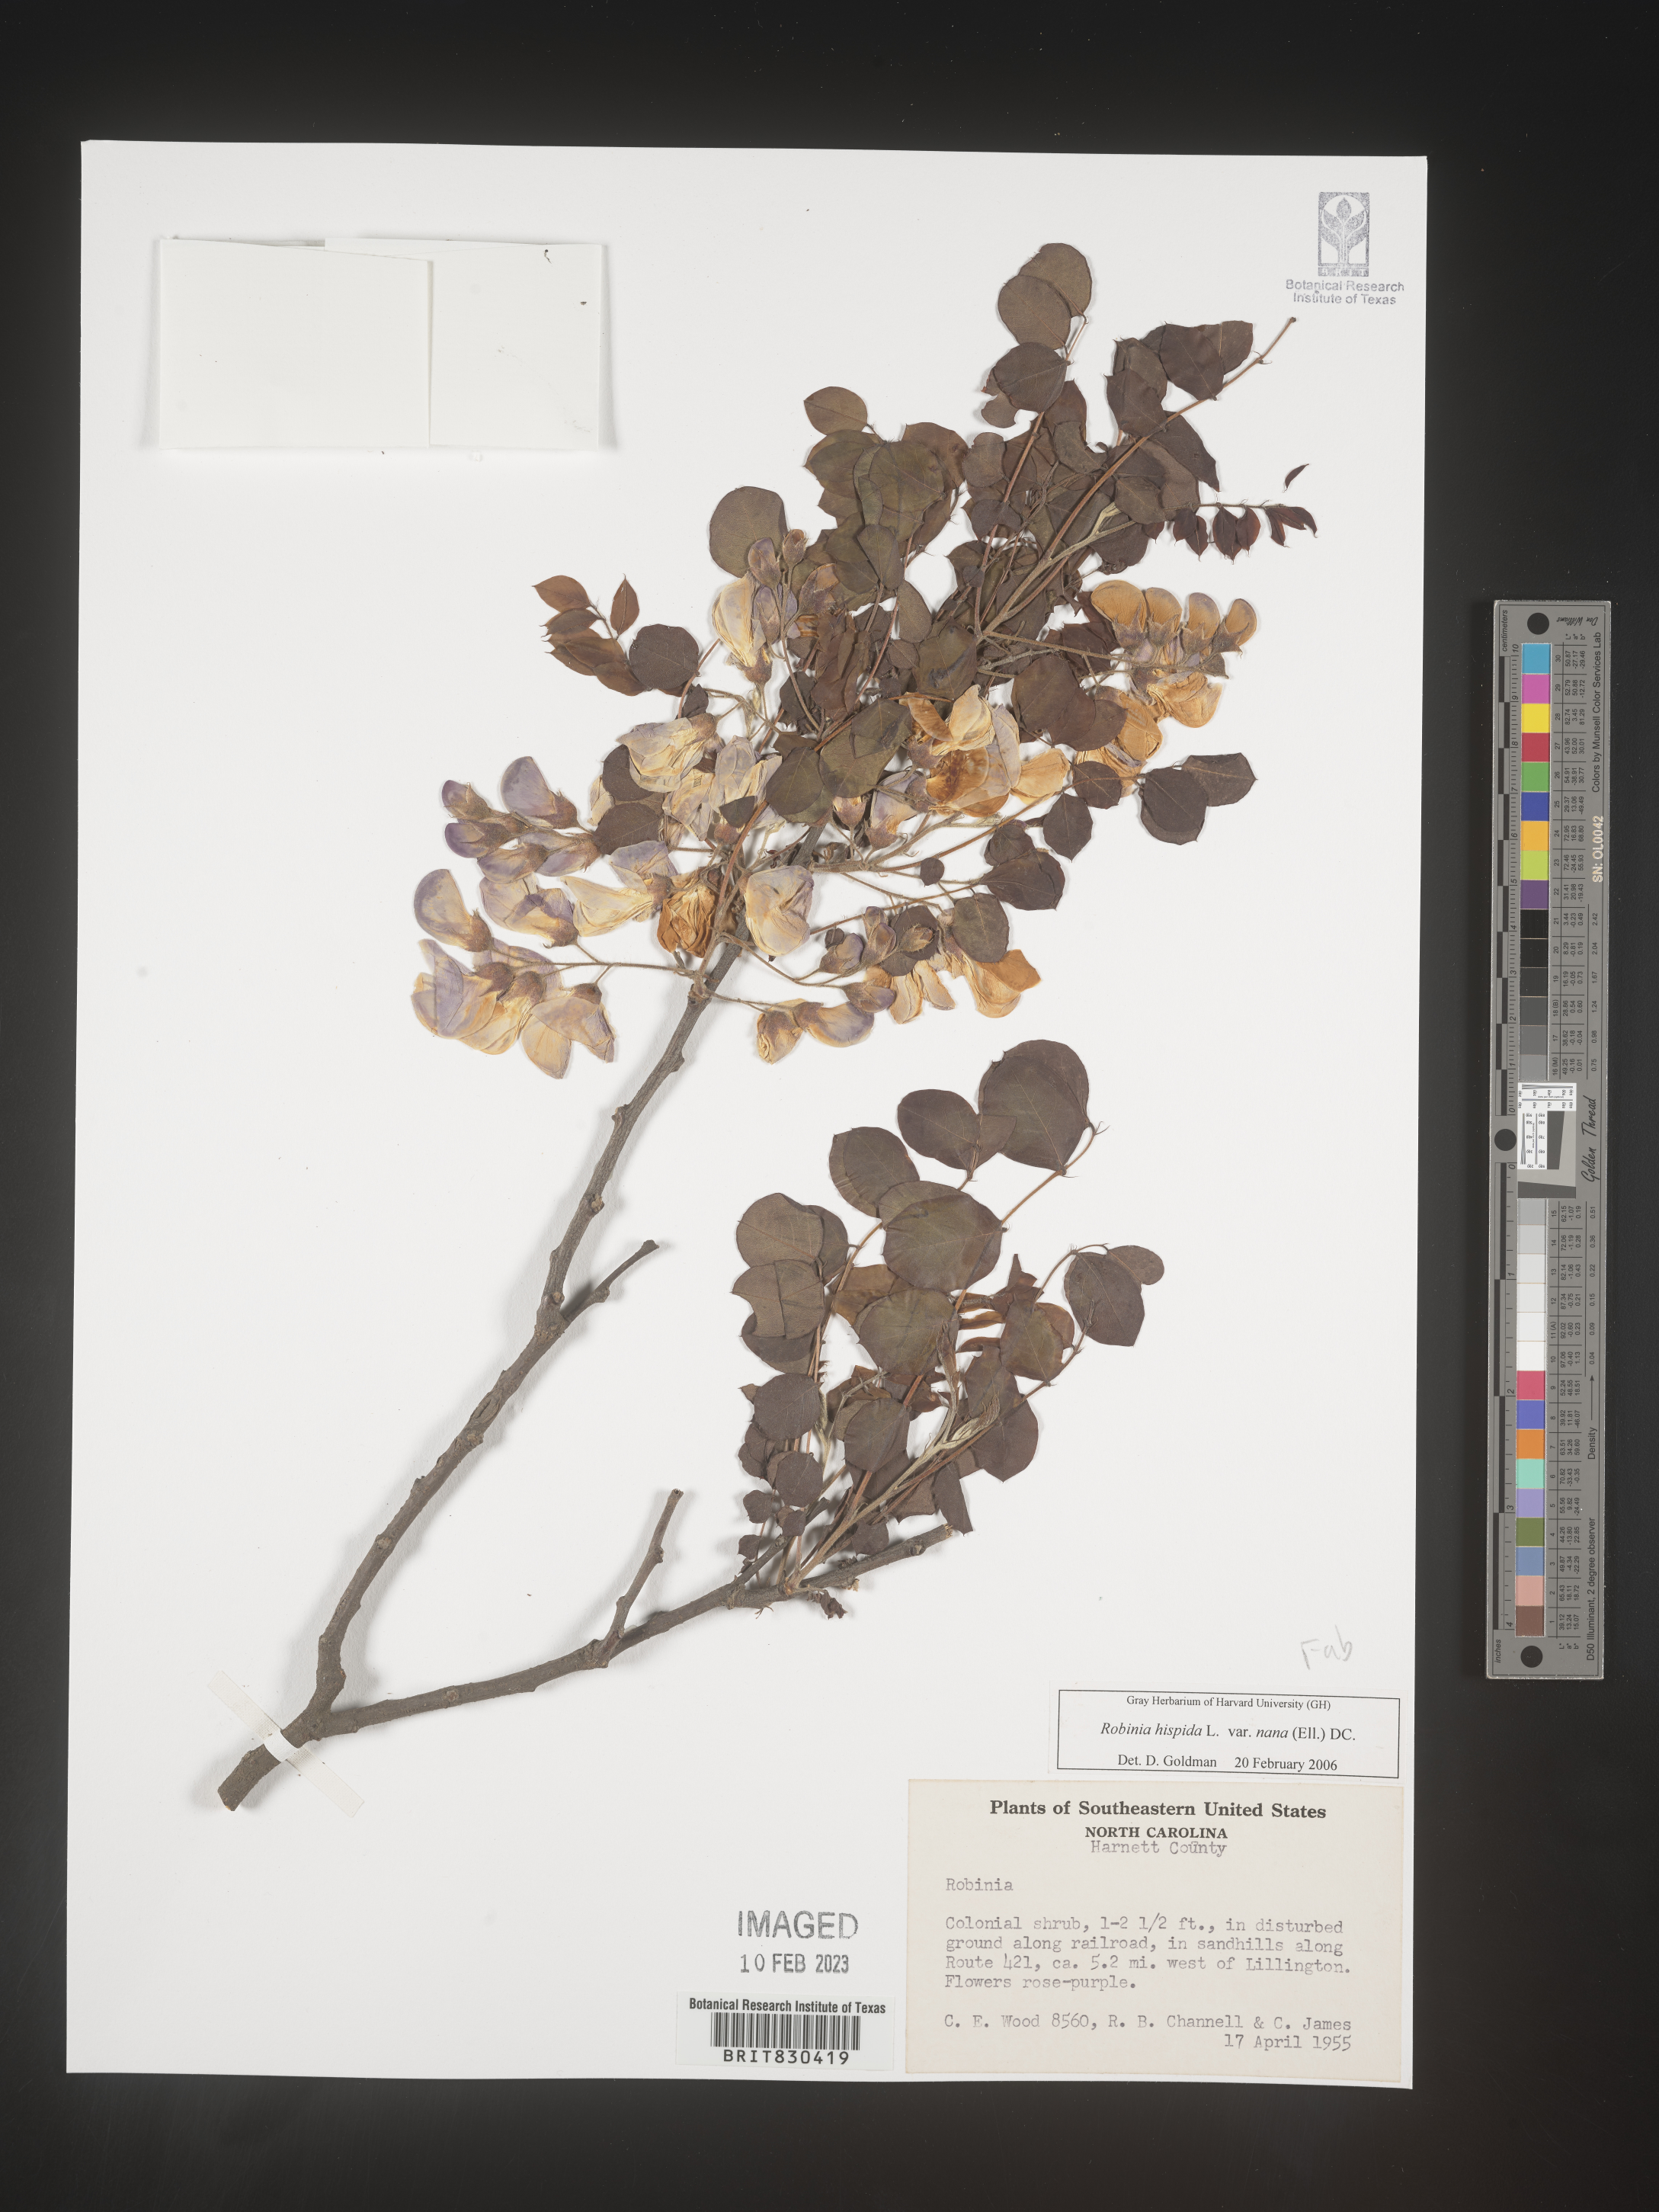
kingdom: Plantae
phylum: Tracheophyta
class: Magnoliopsida
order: Fabales
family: Fabaceae
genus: Robinia
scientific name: Robinia hispida
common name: Bristly locust
